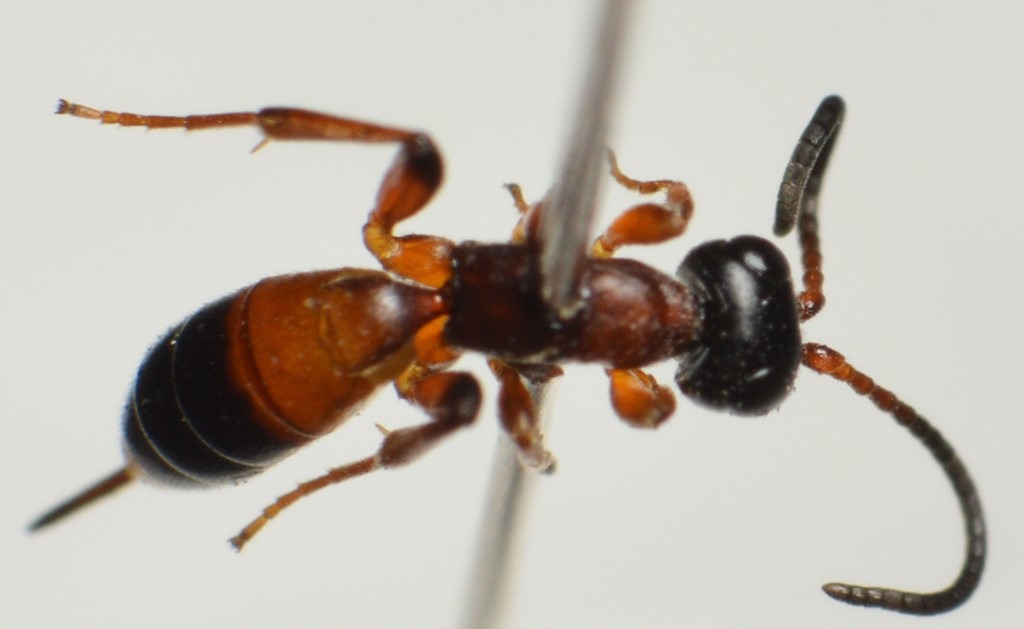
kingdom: Animalia
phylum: Arthropoda
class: Insecta
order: Hymenoptera
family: Ichneumonidae
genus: Gelis
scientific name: Gelis pilosulus
